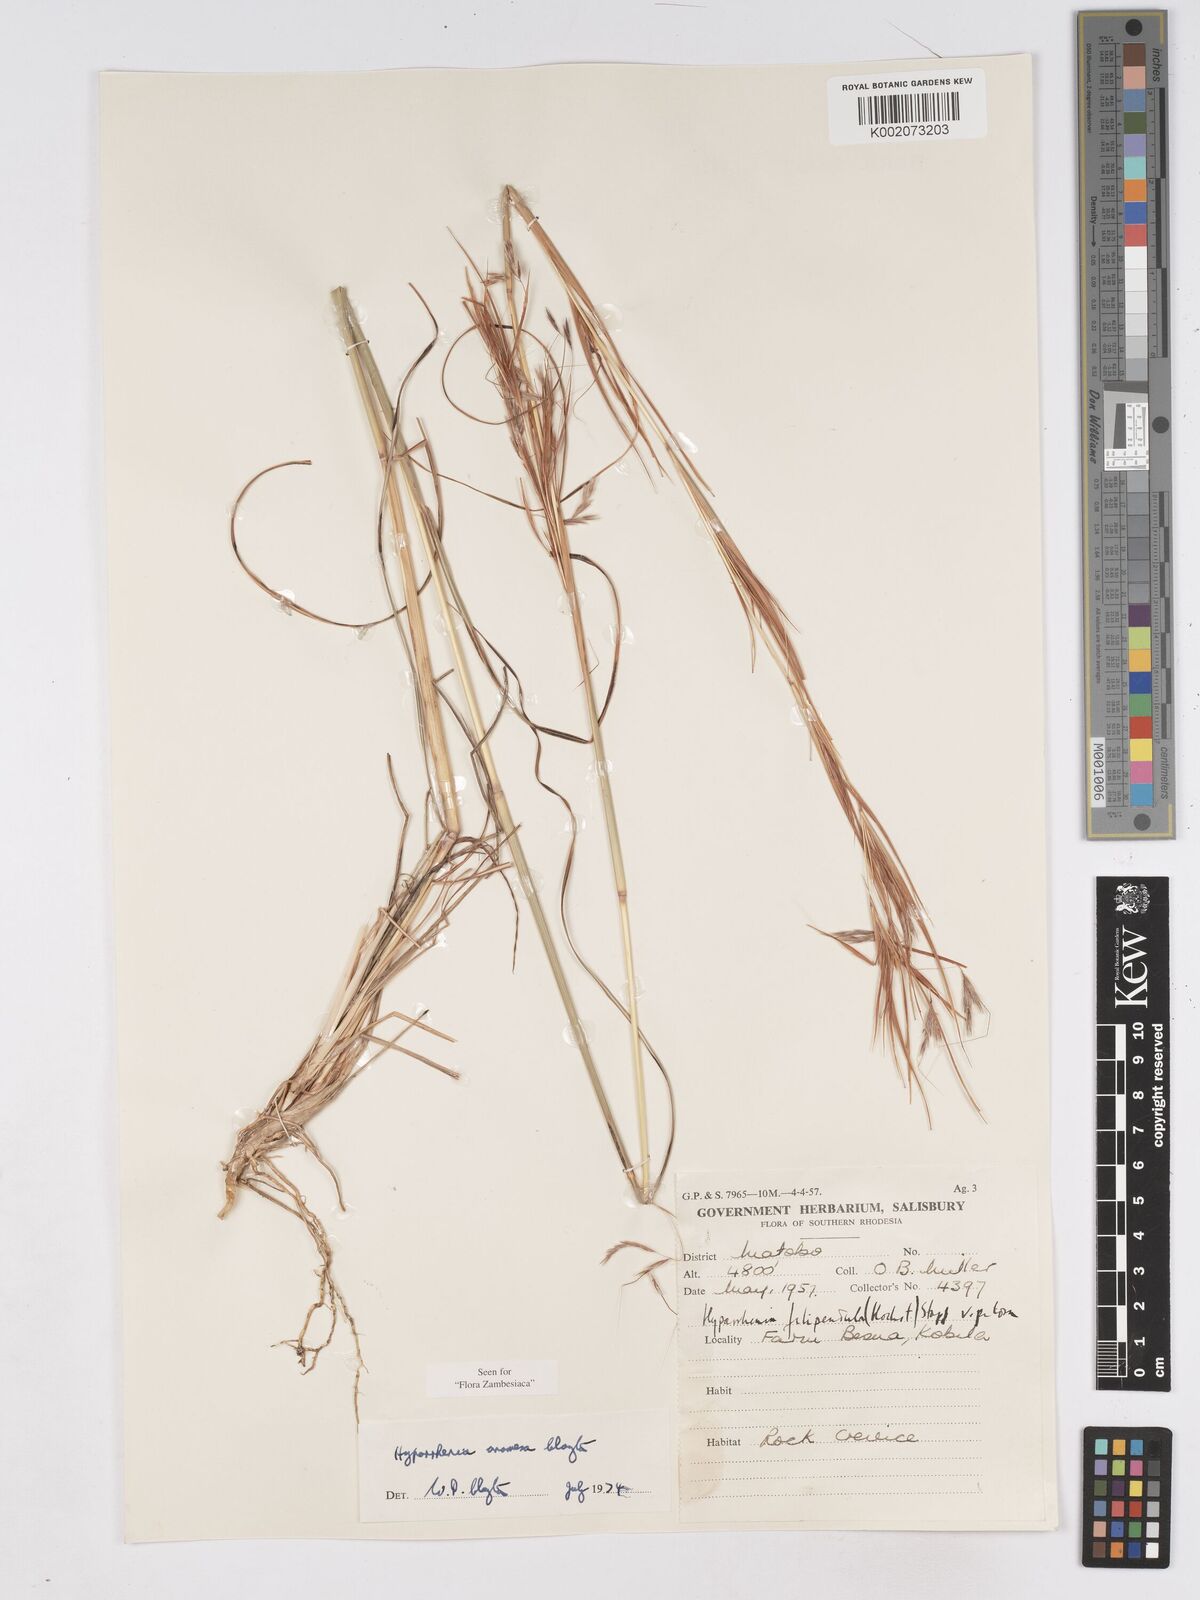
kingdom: Plantae
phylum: Tracheophyta
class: Liliopsida
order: Poales
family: Poaceae
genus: Hyparrhenia
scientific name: Hyparrhenia anamesa
